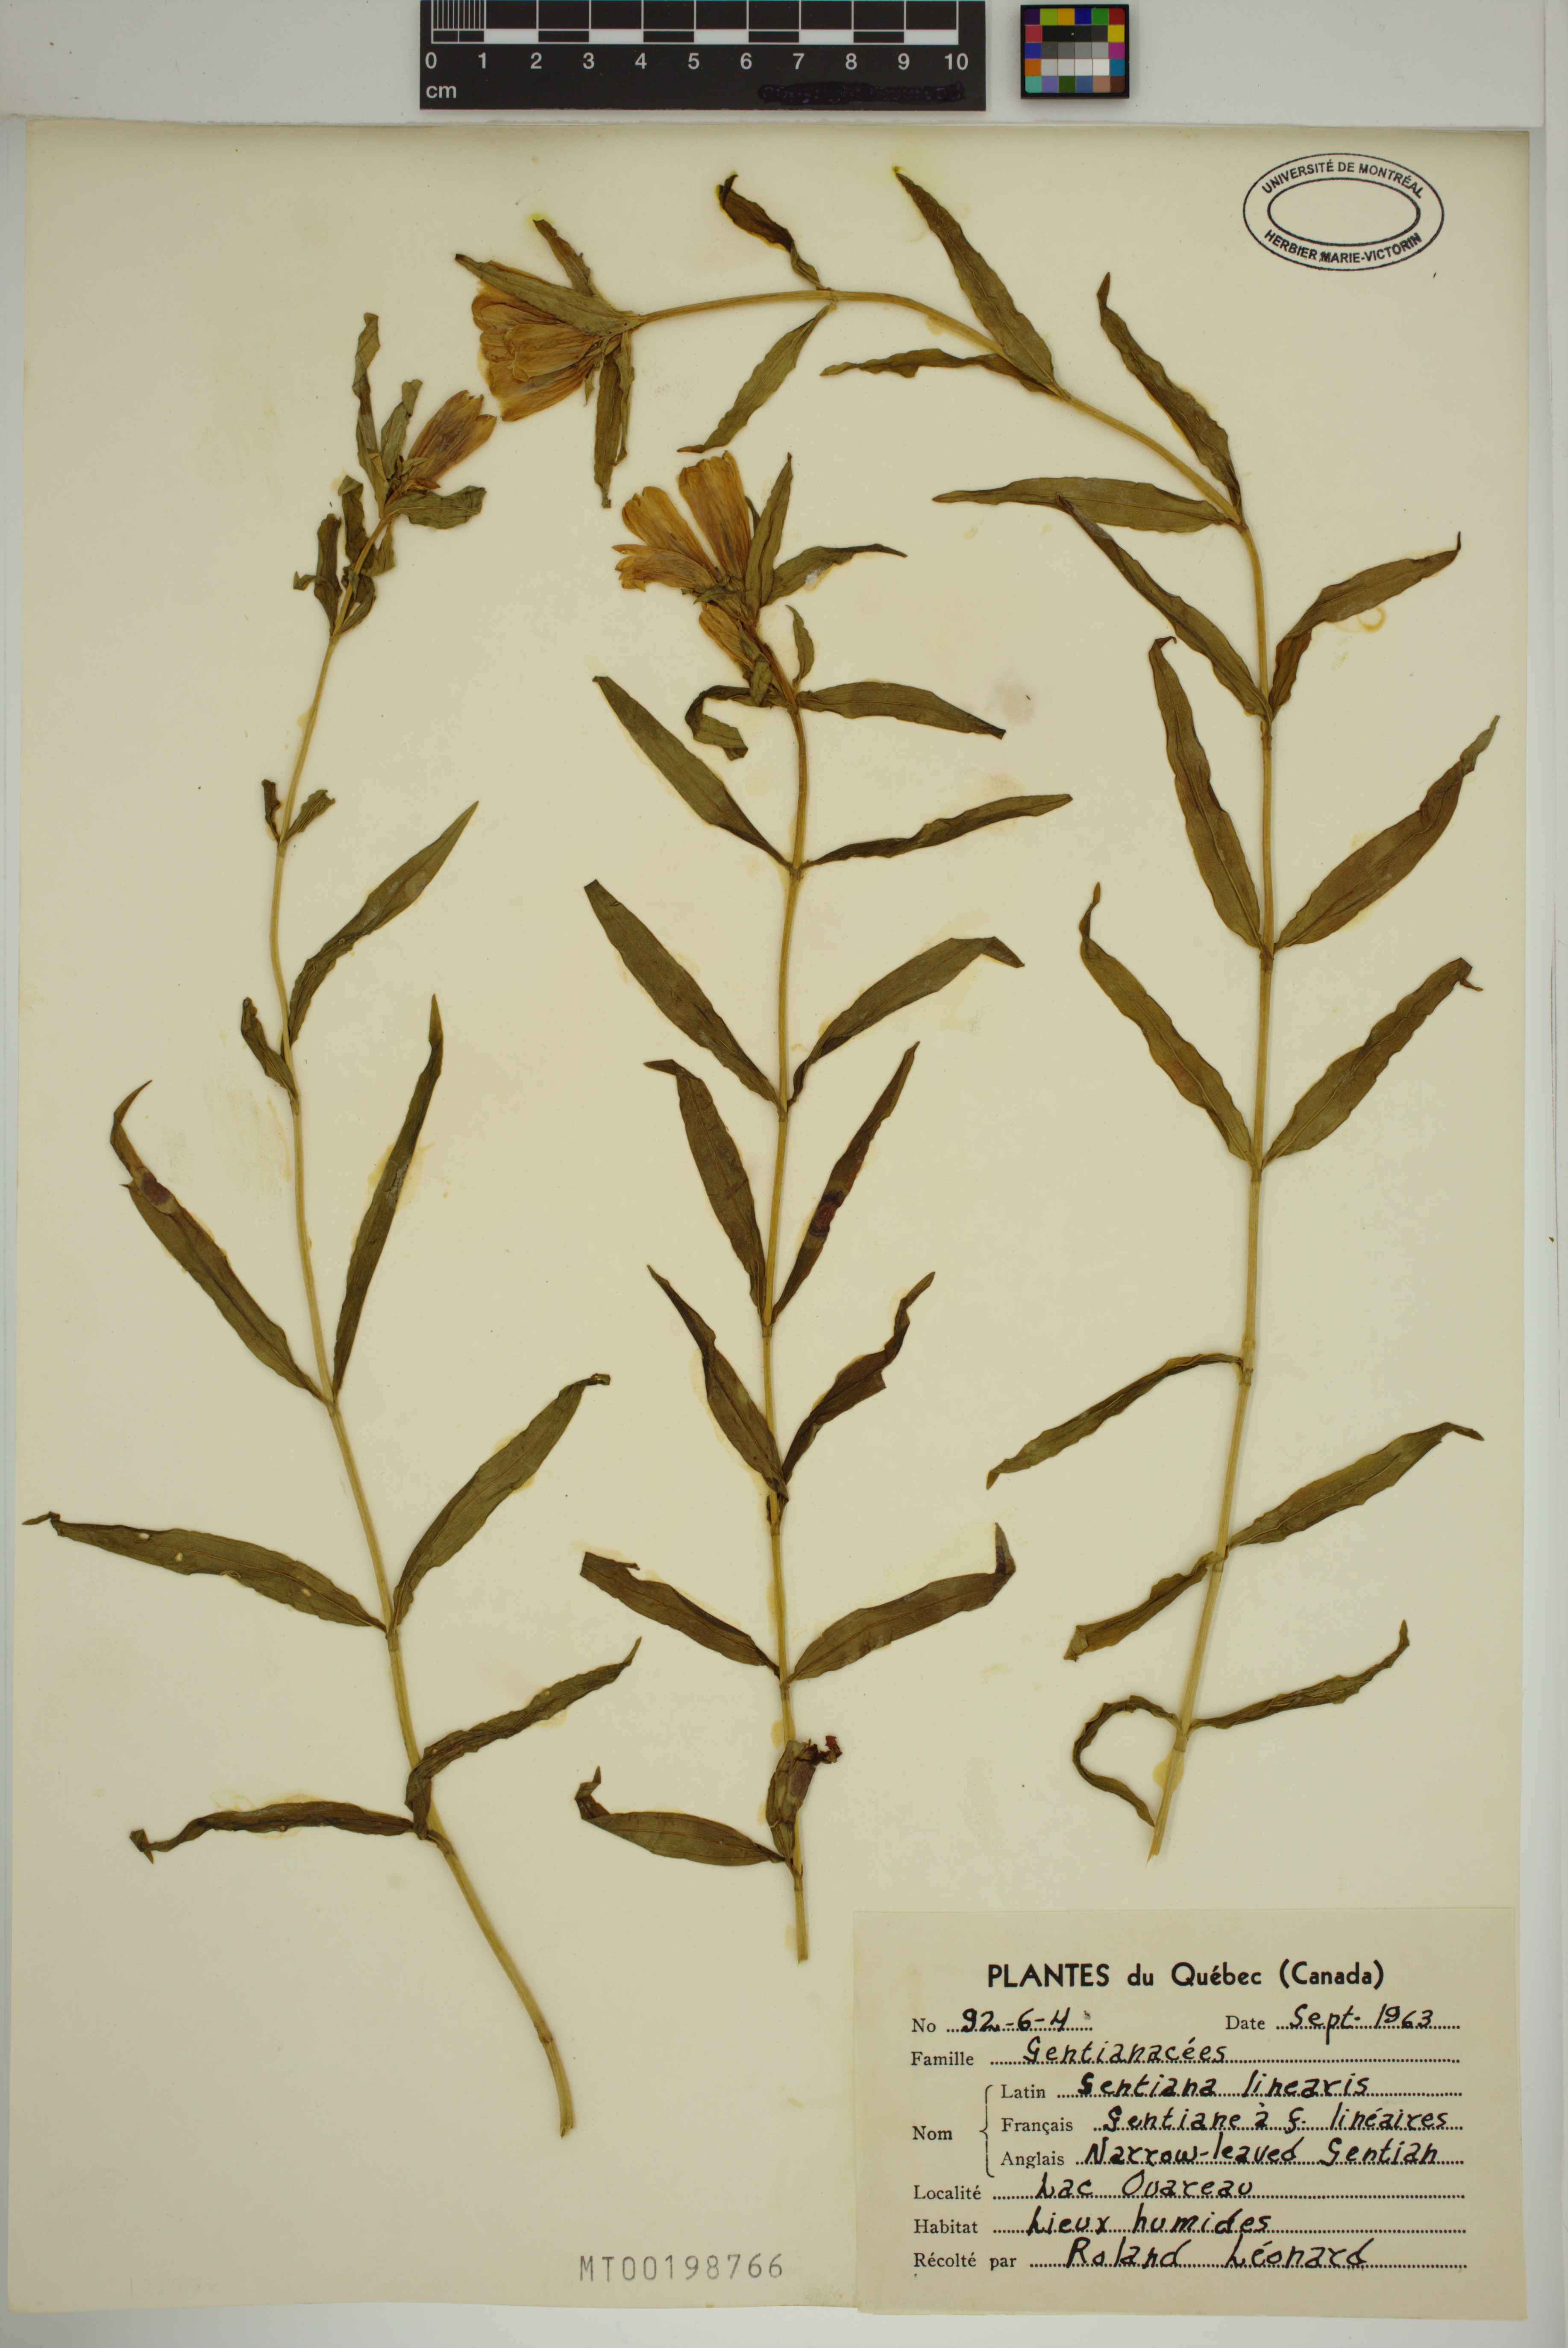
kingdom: Plantae
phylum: Tracheophyta
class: Magnoliopsida
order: Gentianales
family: Gentianaceae
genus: Gentiana
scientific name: Gentiana linearis
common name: Bastard gentian
